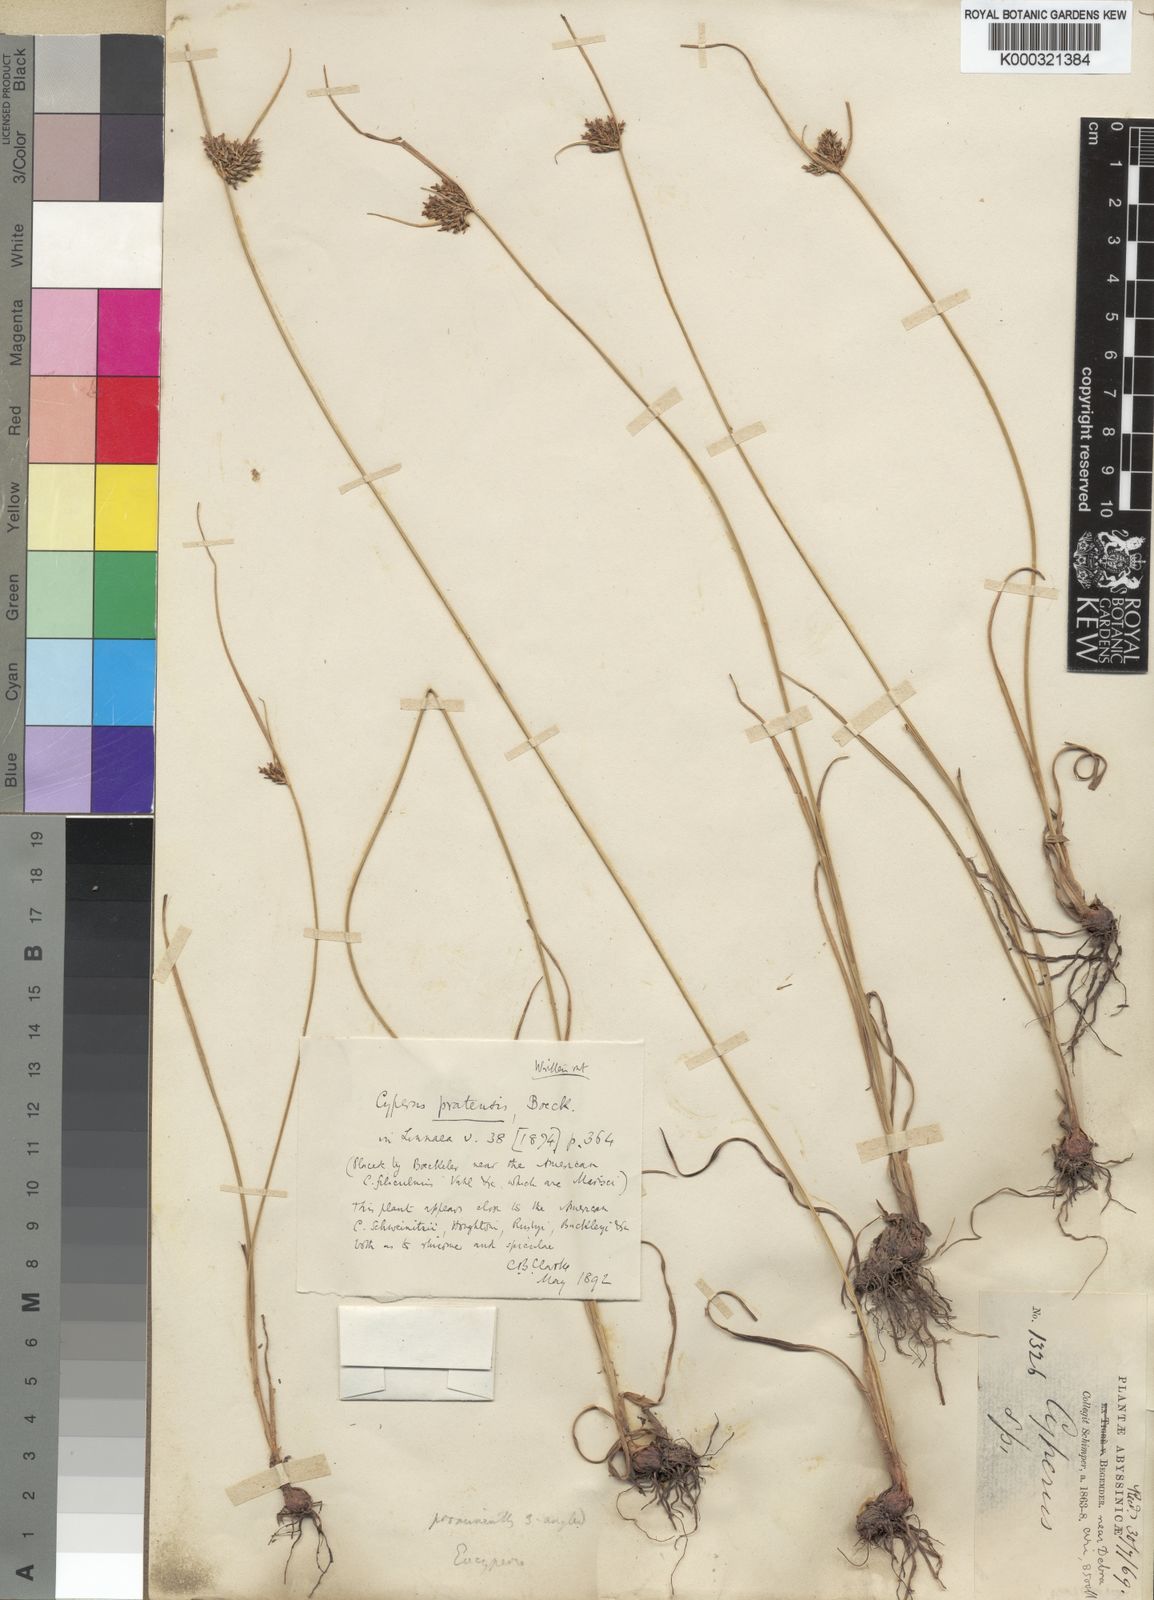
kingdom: Plantae
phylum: Tracheophyta
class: Liliopsida
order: Poales
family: Cyperaceae
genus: Cyperus
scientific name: Cyperus pratensis
